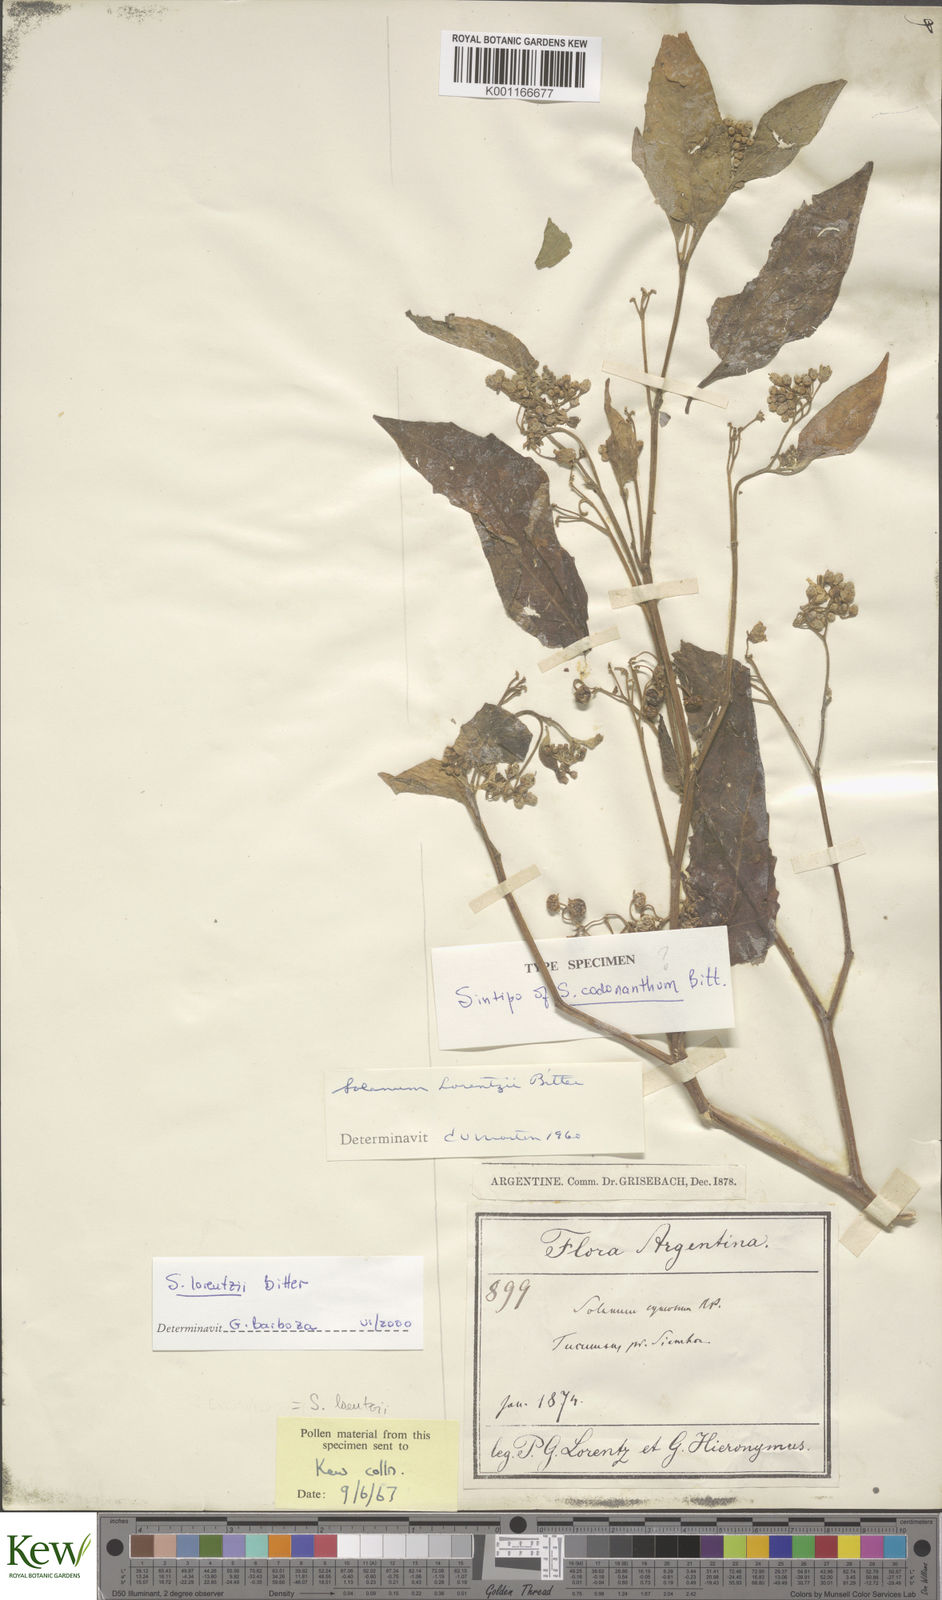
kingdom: Plantae
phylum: Tracheophyta
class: Magnoliopsida
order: Solanales
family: Solanaceae
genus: Solanum
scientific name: Solanum aloysiifolium
